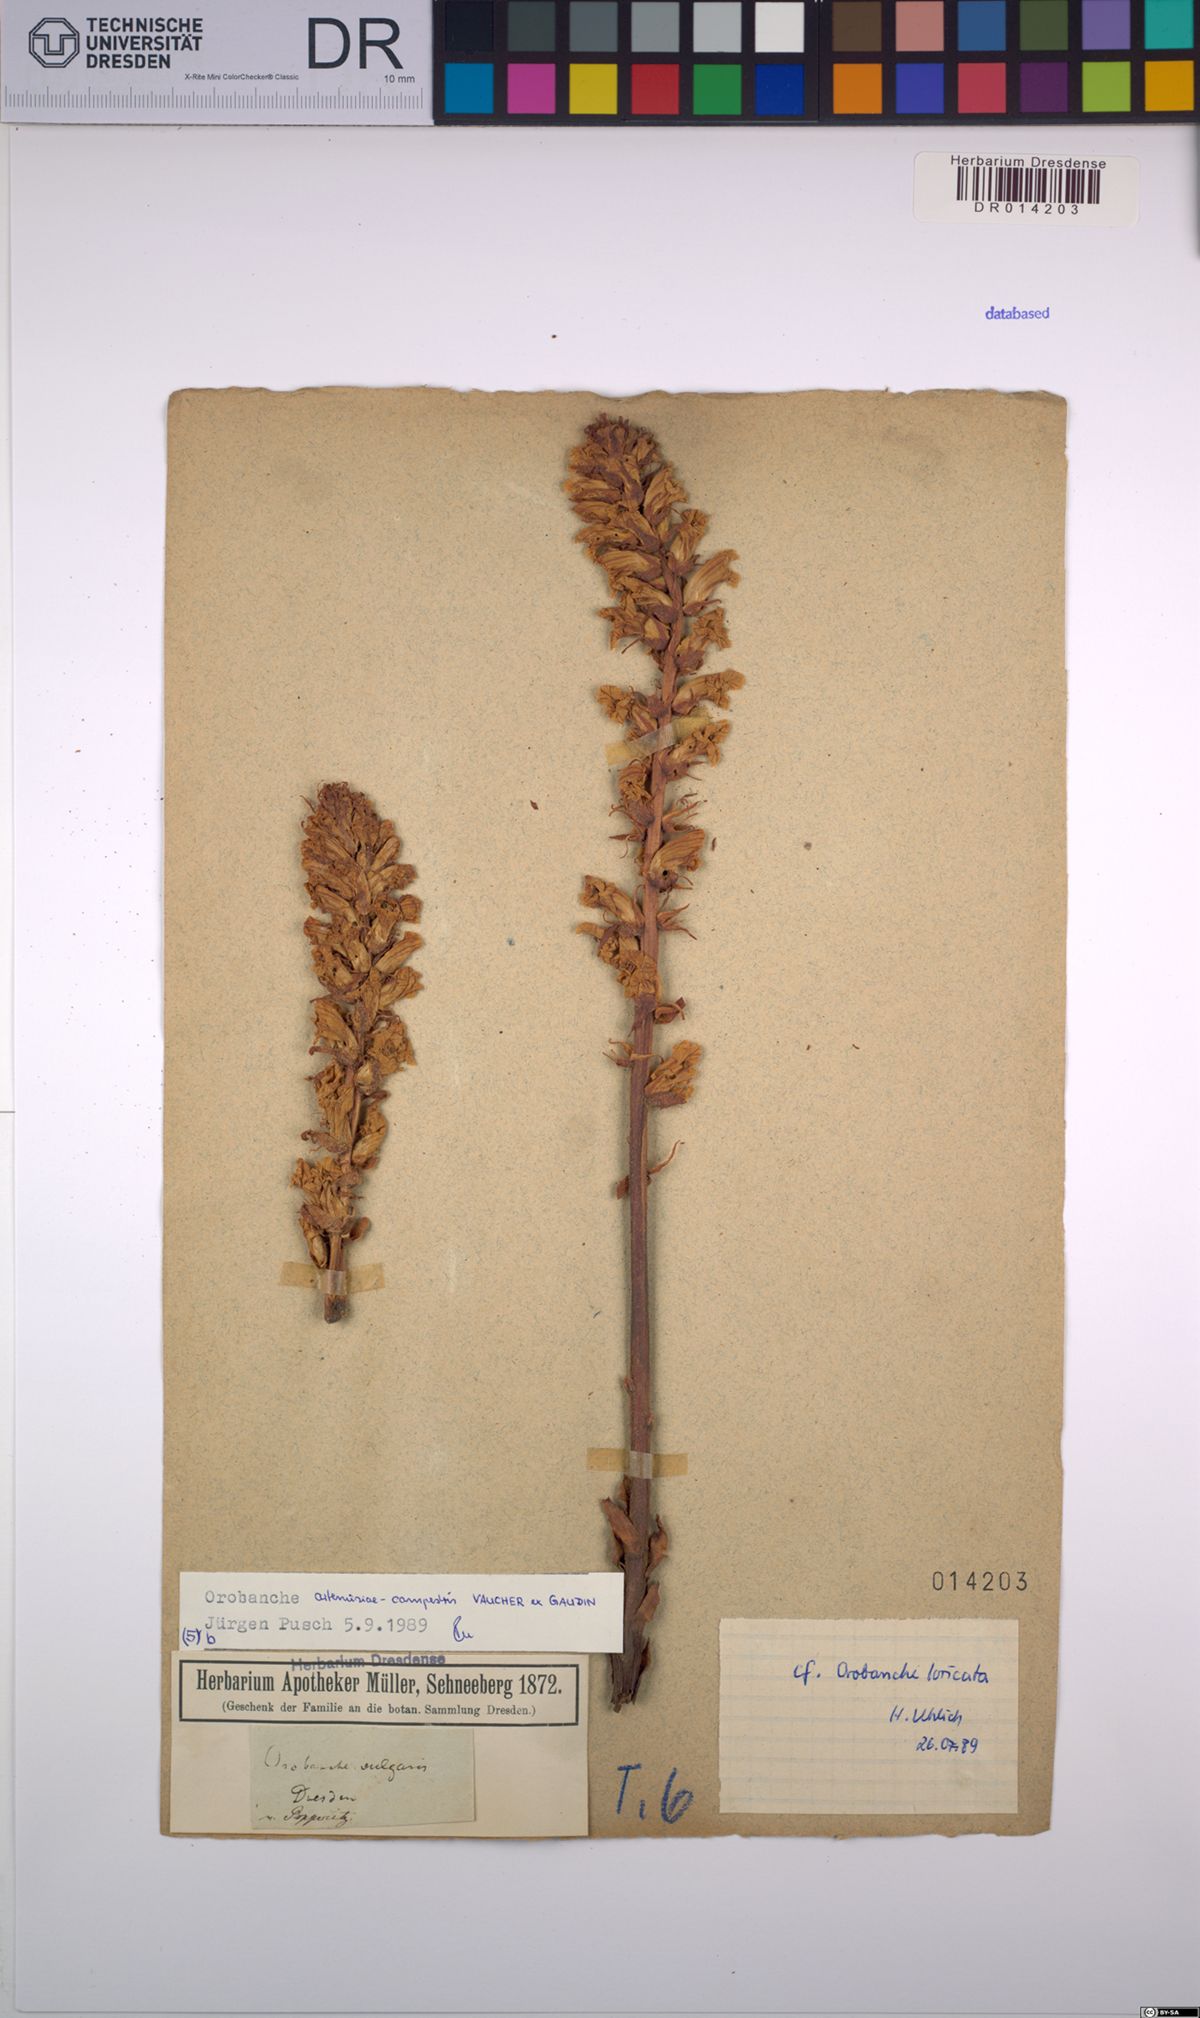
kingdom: Plantae
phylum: Tracheophyta
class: Magnoliopsida
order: Lamiales
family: Orobanchaceae
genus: Orobanche
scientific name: Orobanche artemisiae-campestris
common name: Oxtongue broomrape
